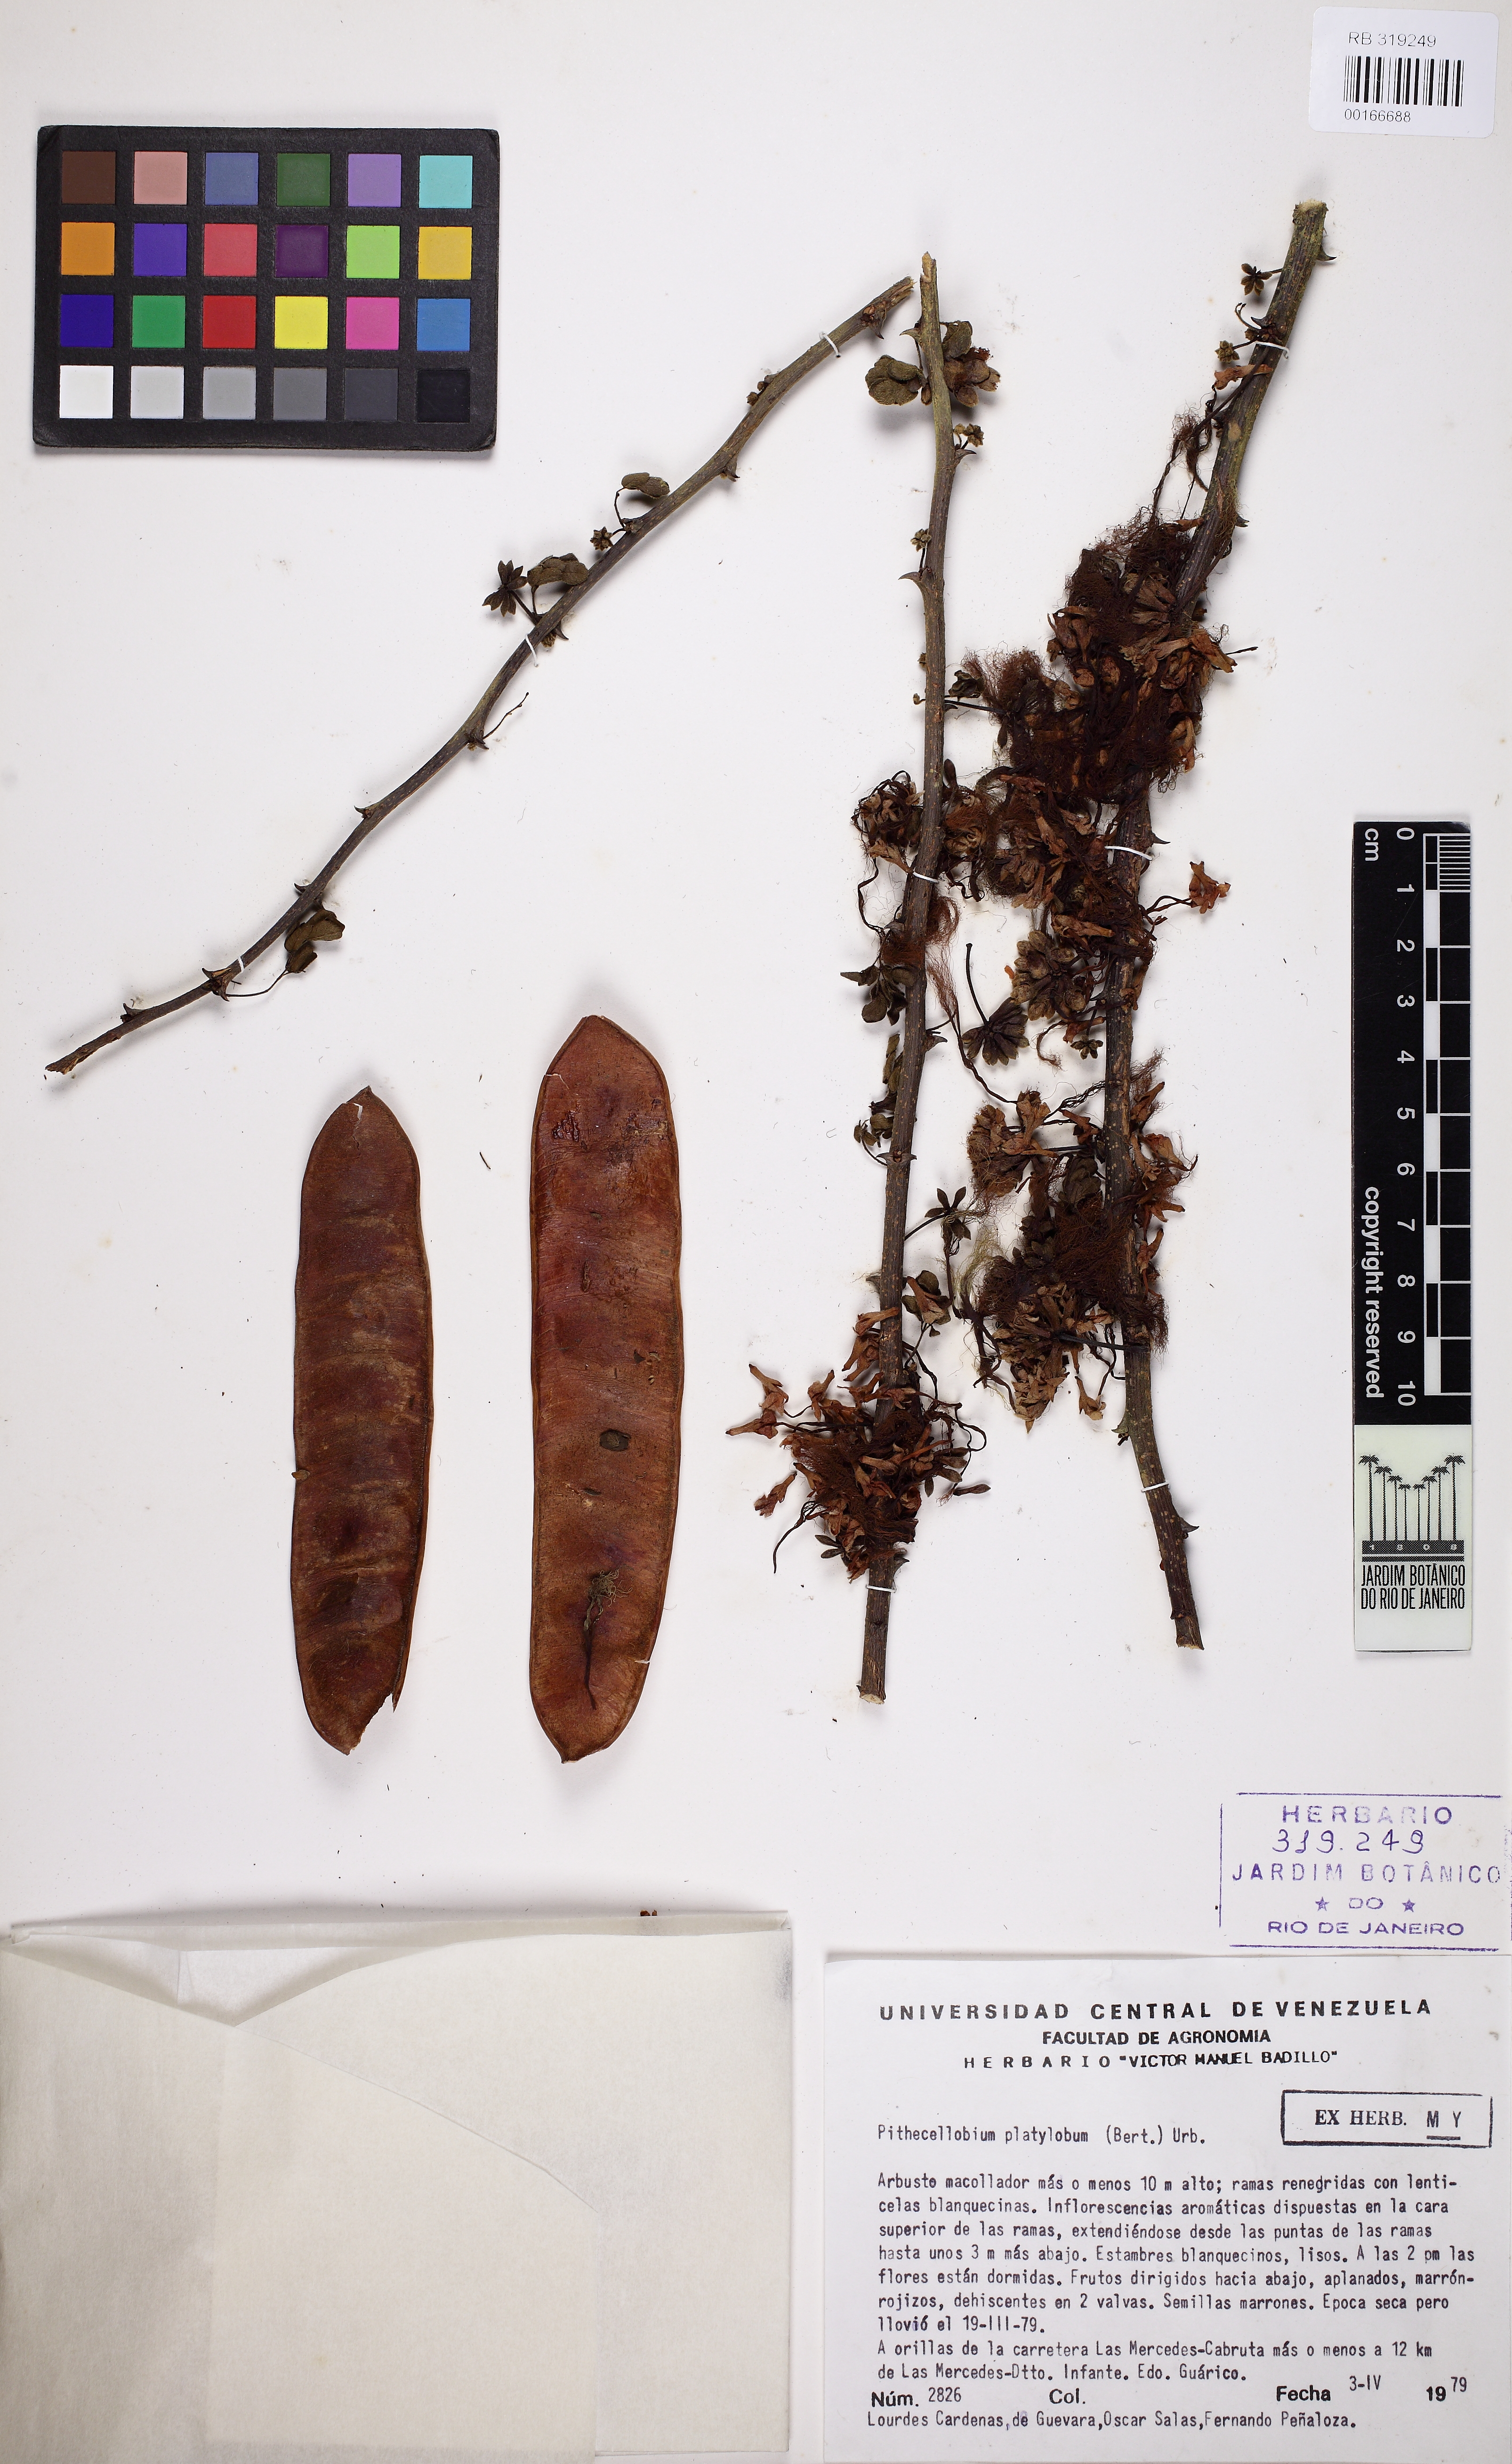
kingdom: Plantae
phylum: Tracheophyta
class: Magnoliopsida
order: Fabales
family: Fabaceae
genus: Havardia
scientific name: Havardia platyloba
